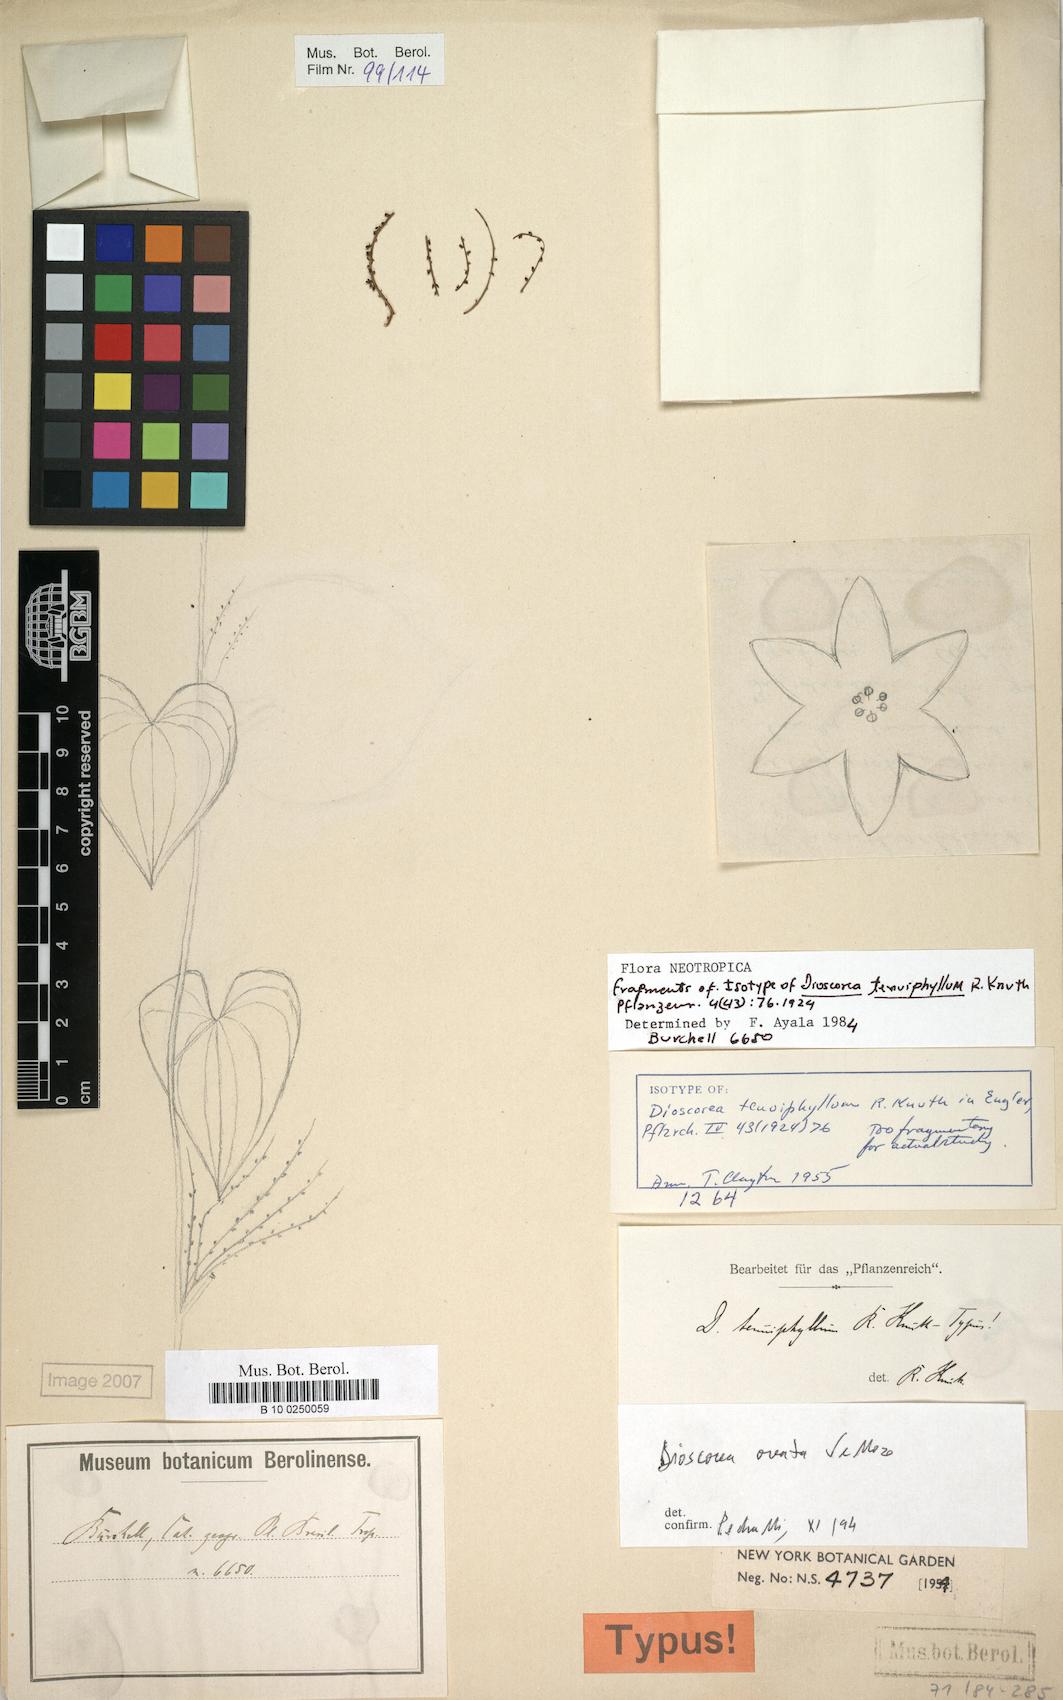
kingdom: Plantae
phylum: Tracheophyta
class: Liliopsida
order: Dioscoreales
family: Dioscoreaceae
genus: Dioscorea
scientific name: Dioscorea ovata
